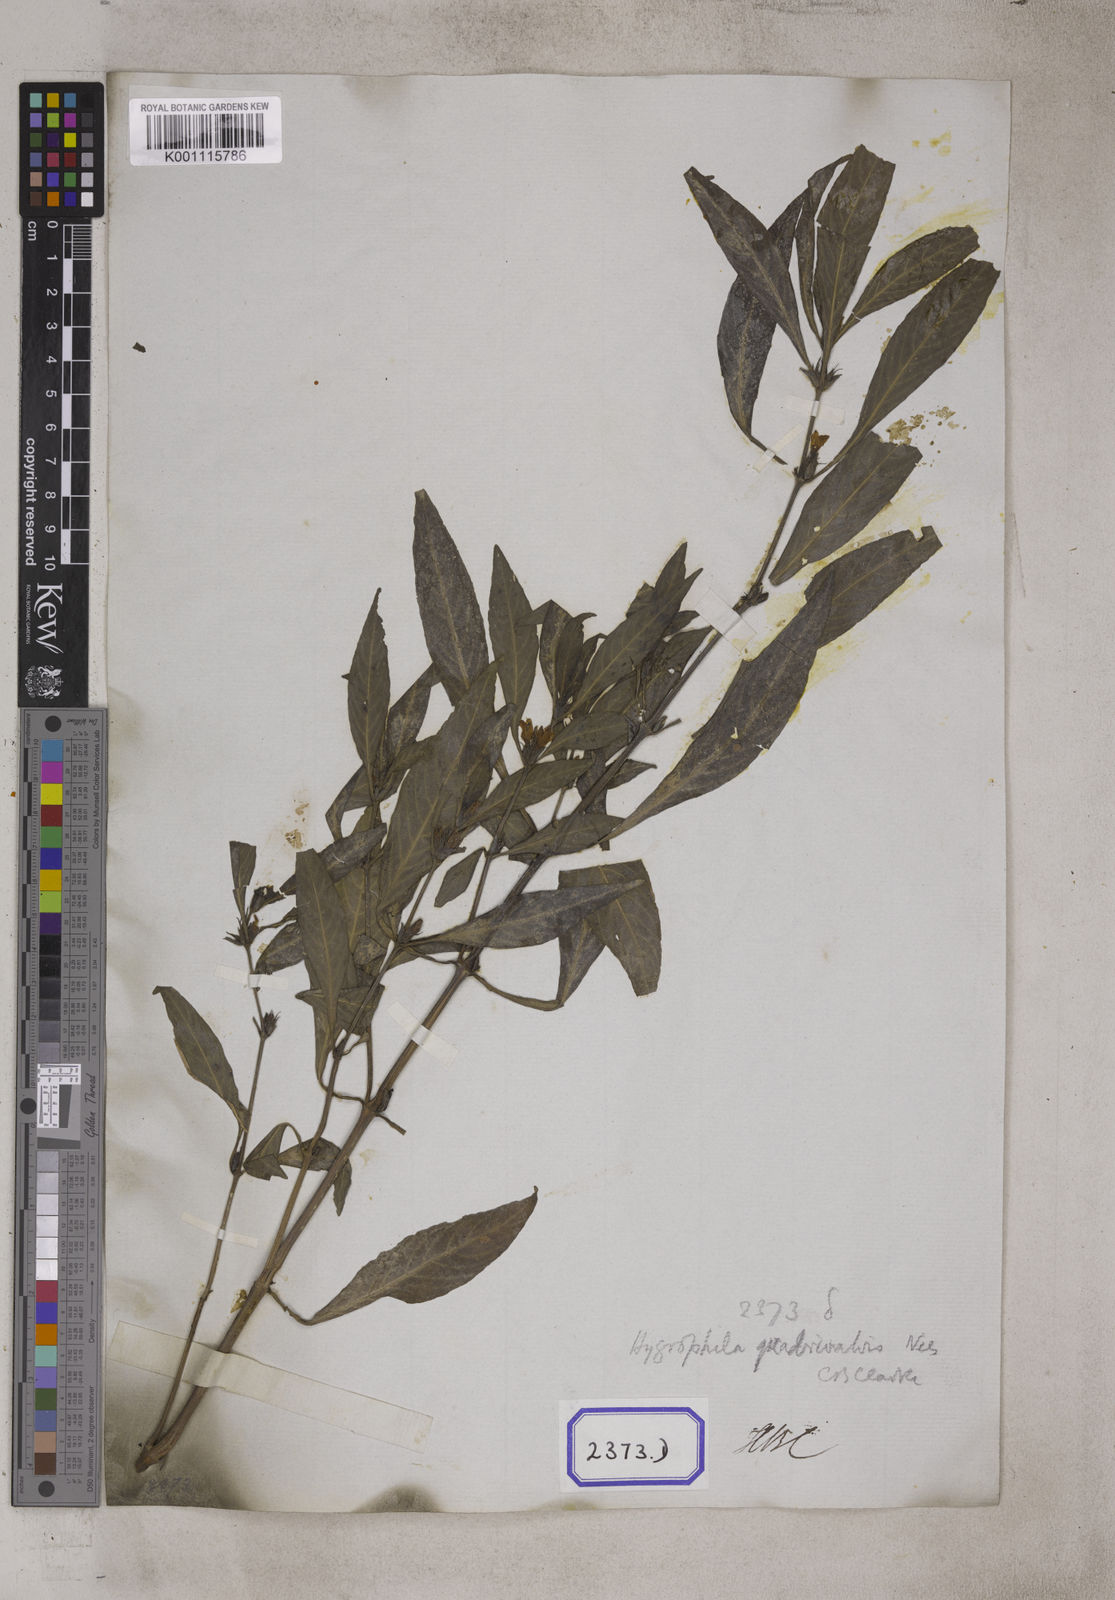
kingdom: Plantae
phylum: Tracheophyta
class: Magnoliopsida
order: Lamiales
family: Acanthaceae
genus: Hygrophila
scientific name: Hygrophila erecta
